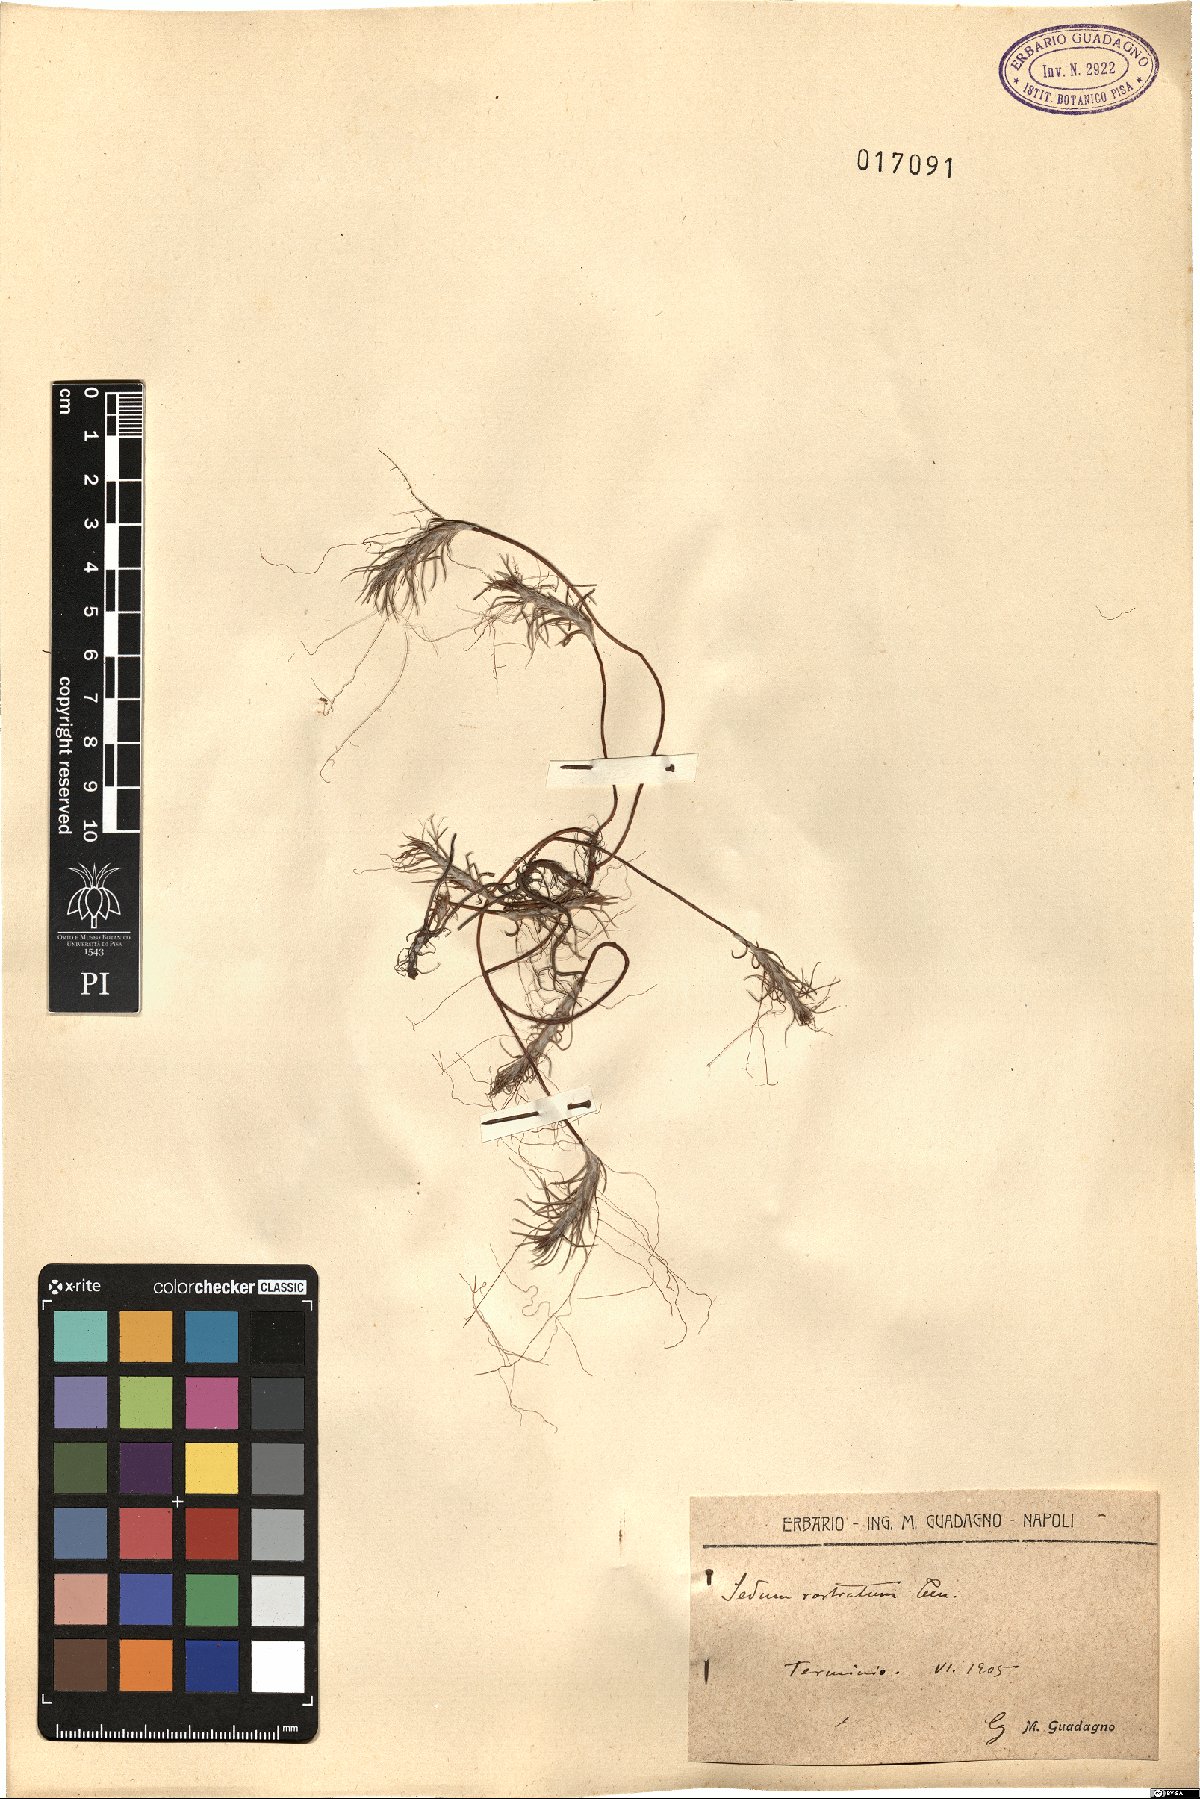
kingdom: Plantae
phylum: Tracheophyta
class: Magnoliopsida
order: Saxifragales
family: Crassulaceae
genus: Petrosedum
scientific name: Petrosedum tenuifolium
